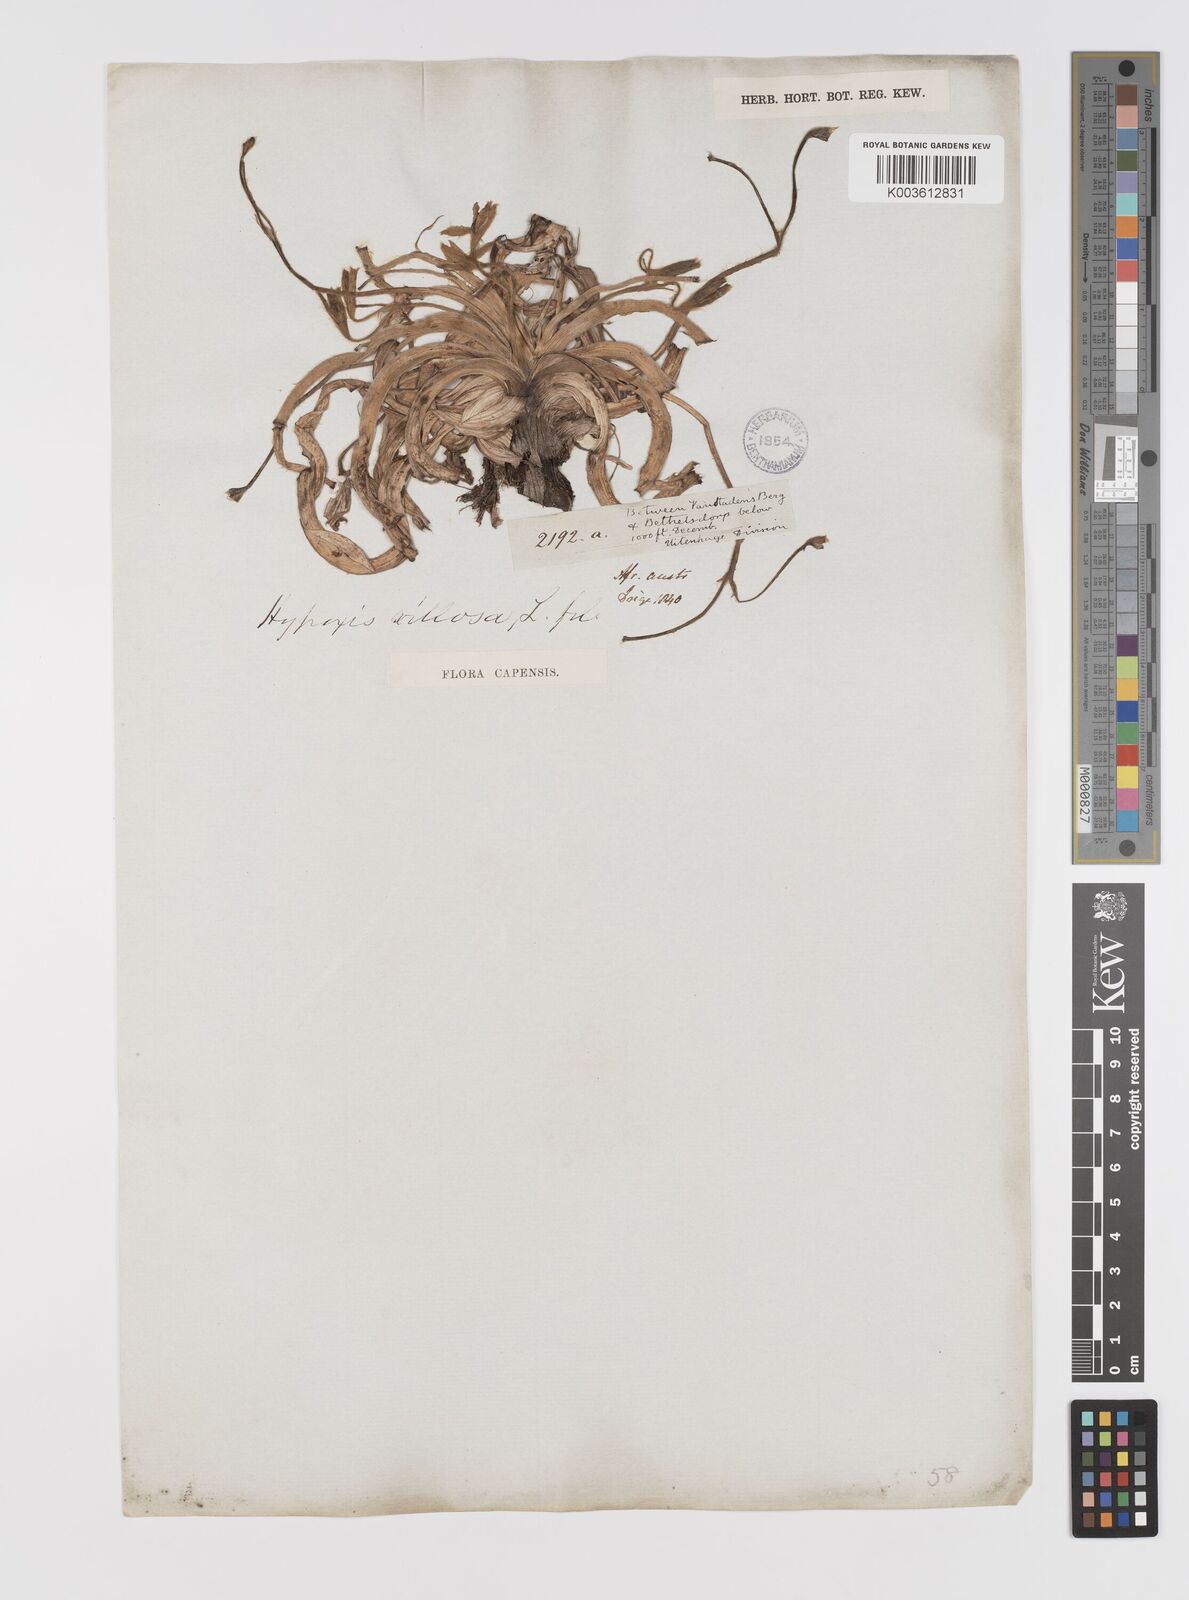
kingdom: Plantae
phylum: Tracheophyta
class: Liliopsida
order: Asparagales
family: Hypoxidaceae
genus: Hypoxis
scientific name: Hypoxis villosa
